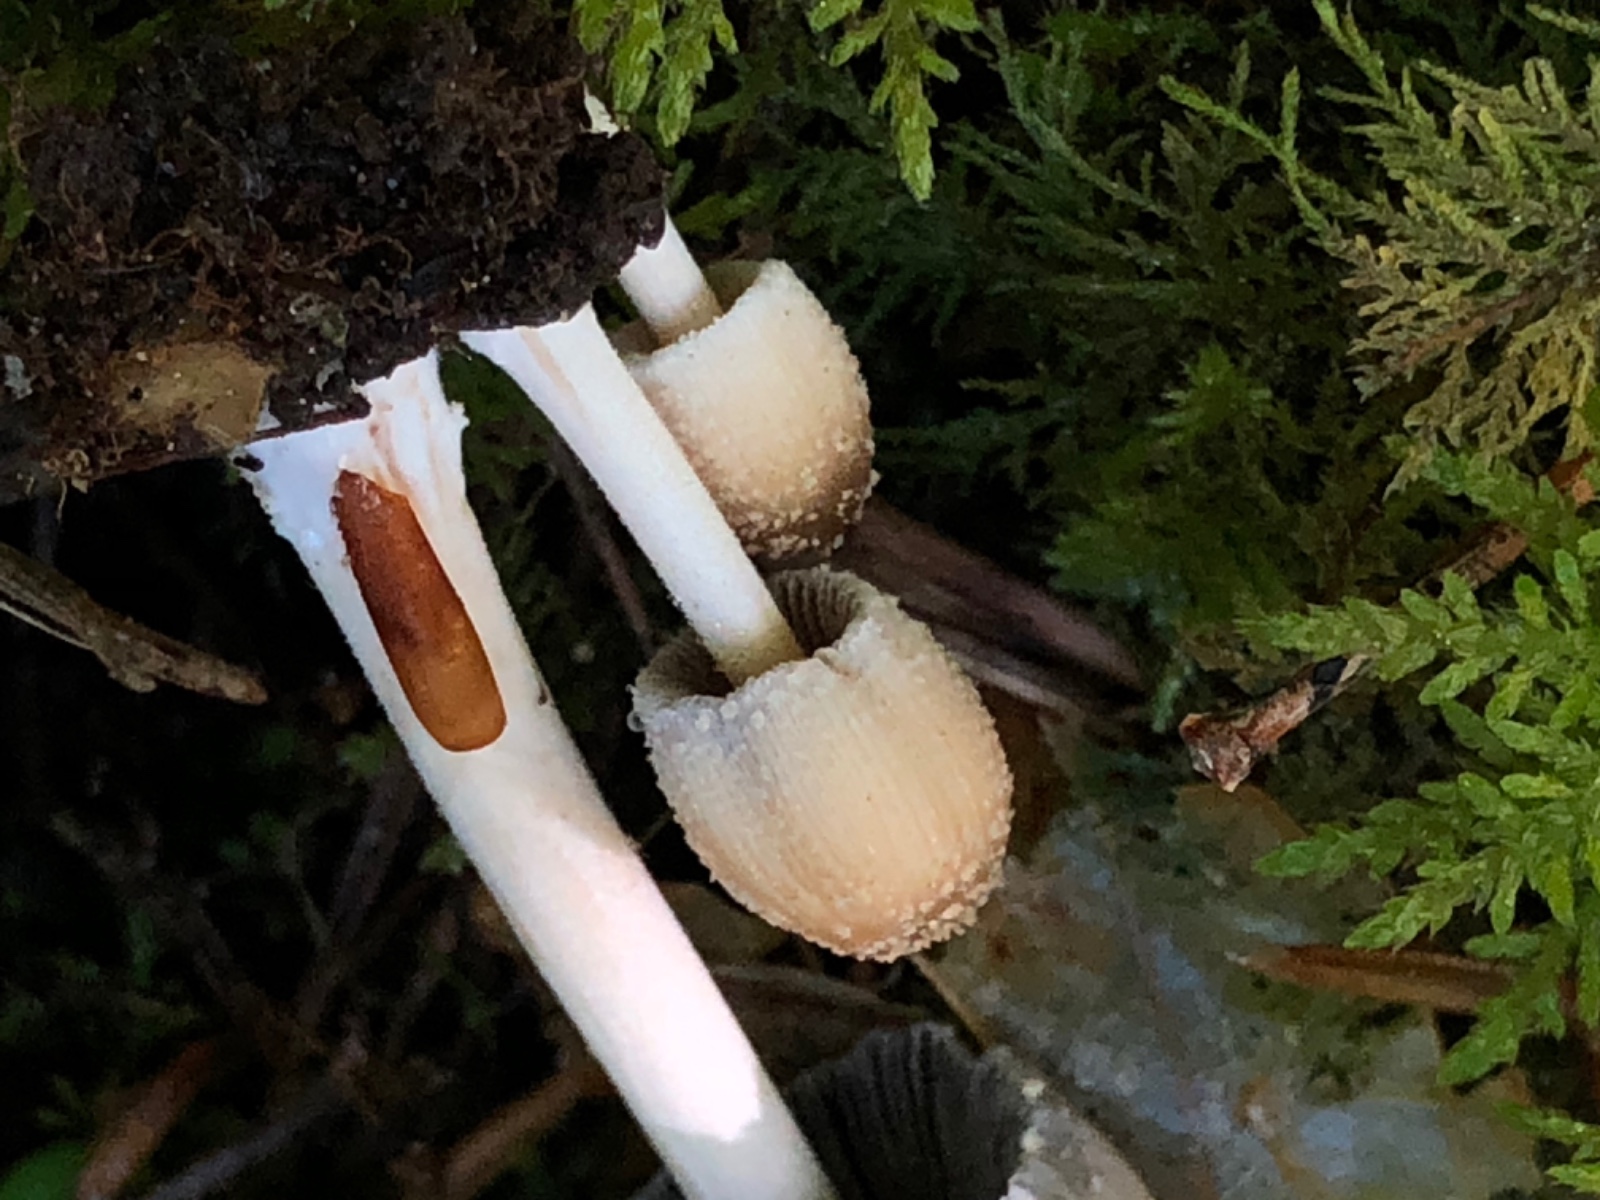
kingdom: Fungi
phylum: Basidiomycota
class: Agaricomycetes
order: Agaricales
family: Psathyrellaceae
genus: Coprinellus
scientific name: Coprinellus micaceus
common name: glimmer-blækhat
